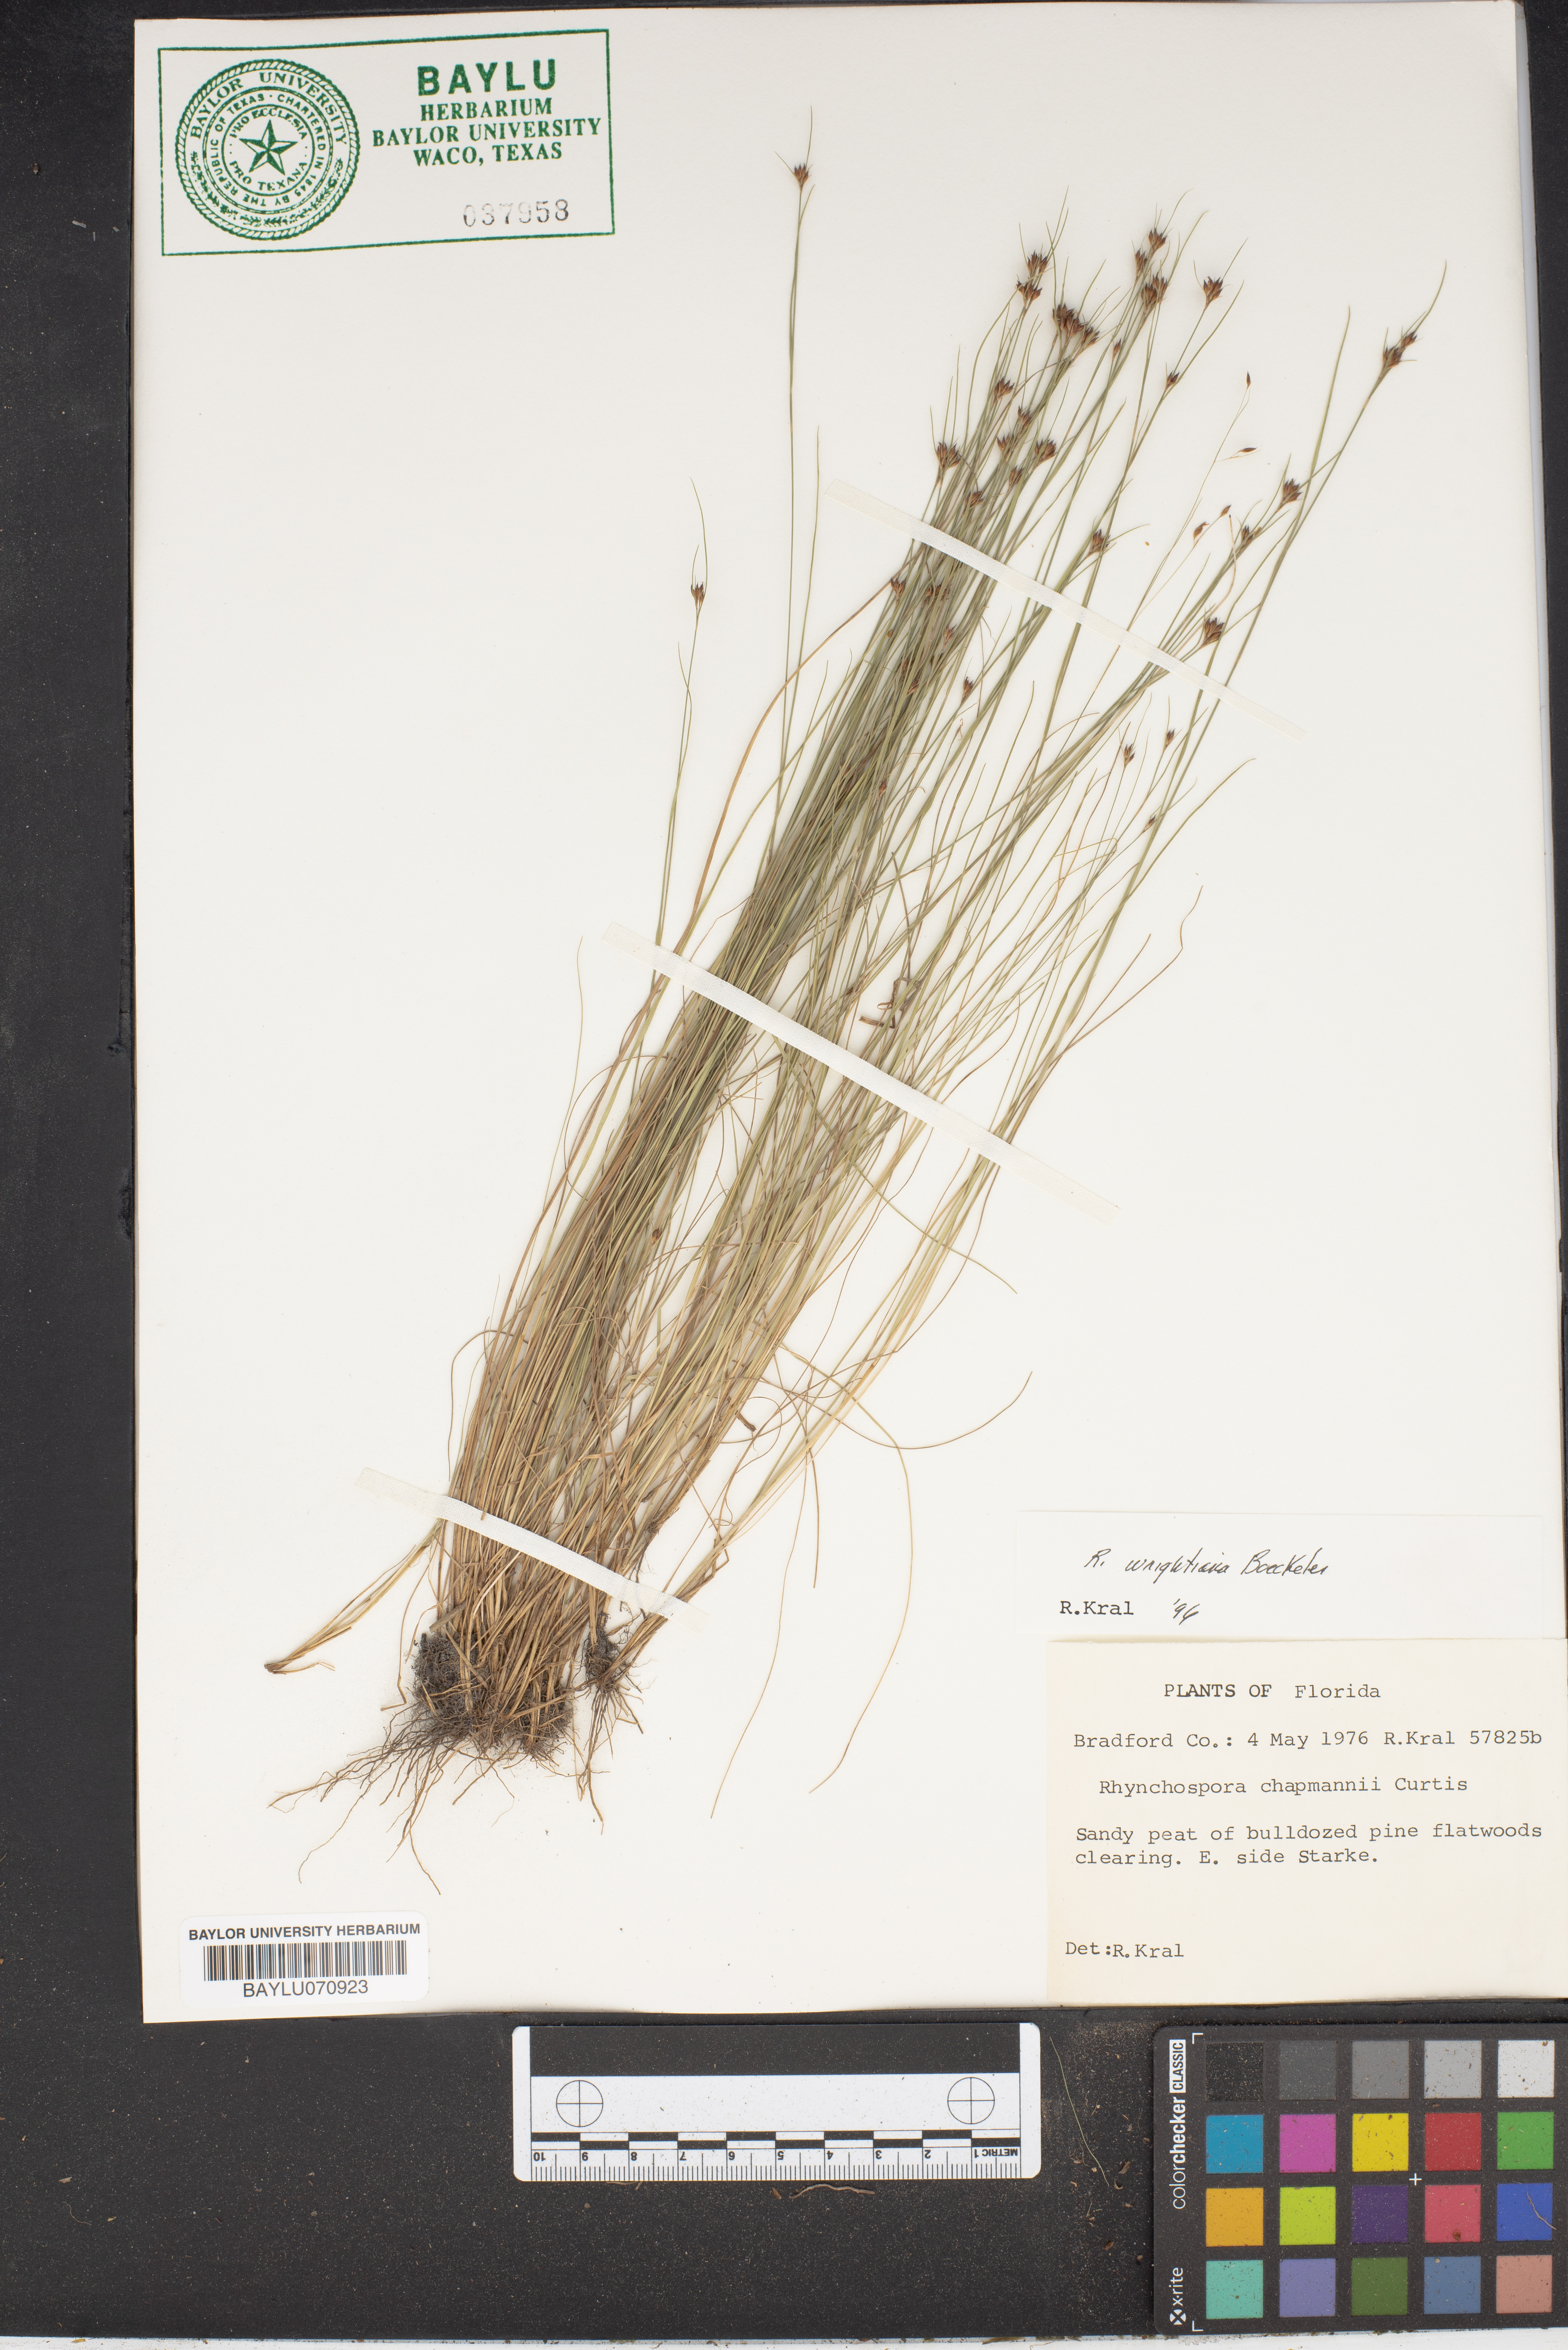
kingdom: Plantae
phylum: Tracheophyta
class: Liliopsida
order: Poales
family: Cyperaceae
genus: Rhynchospora
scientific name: Rhynchospora wrightiana
